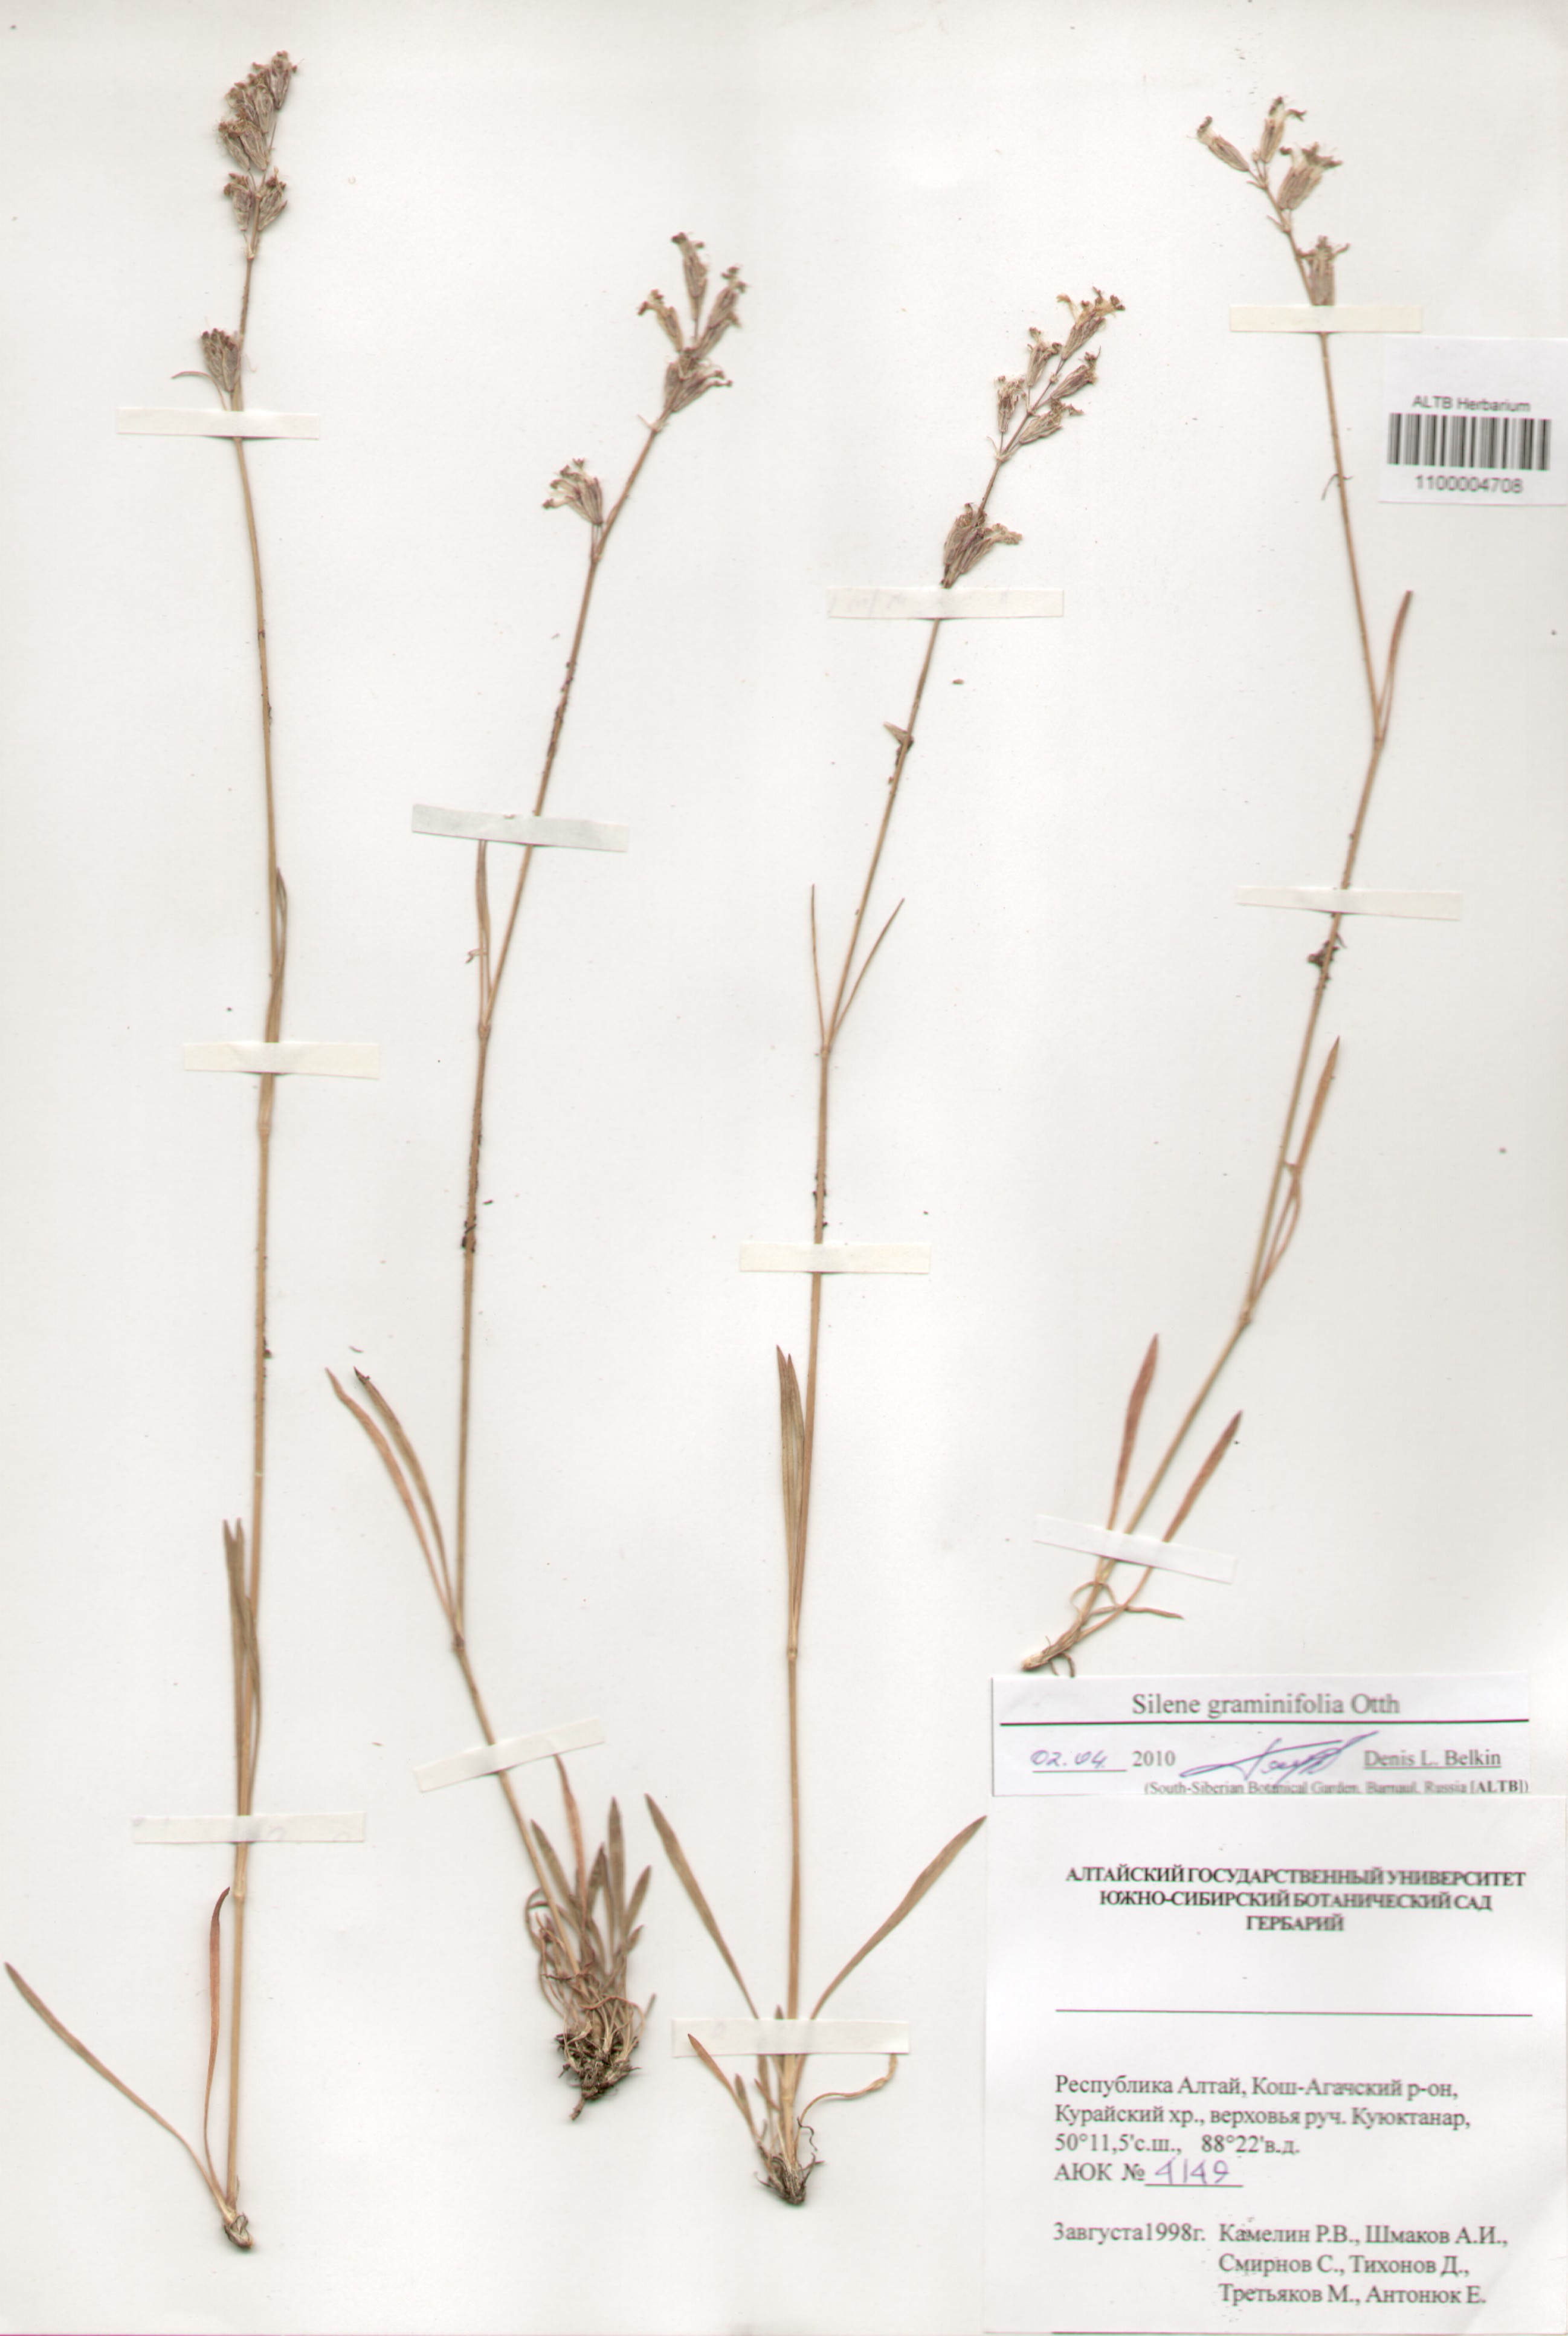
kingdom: Plantae
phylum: Tracheophyta
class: Magnoliopsida
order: Caryophyllales
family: Caryophyllaceae
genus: Silene
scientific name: Silene graminifolia
